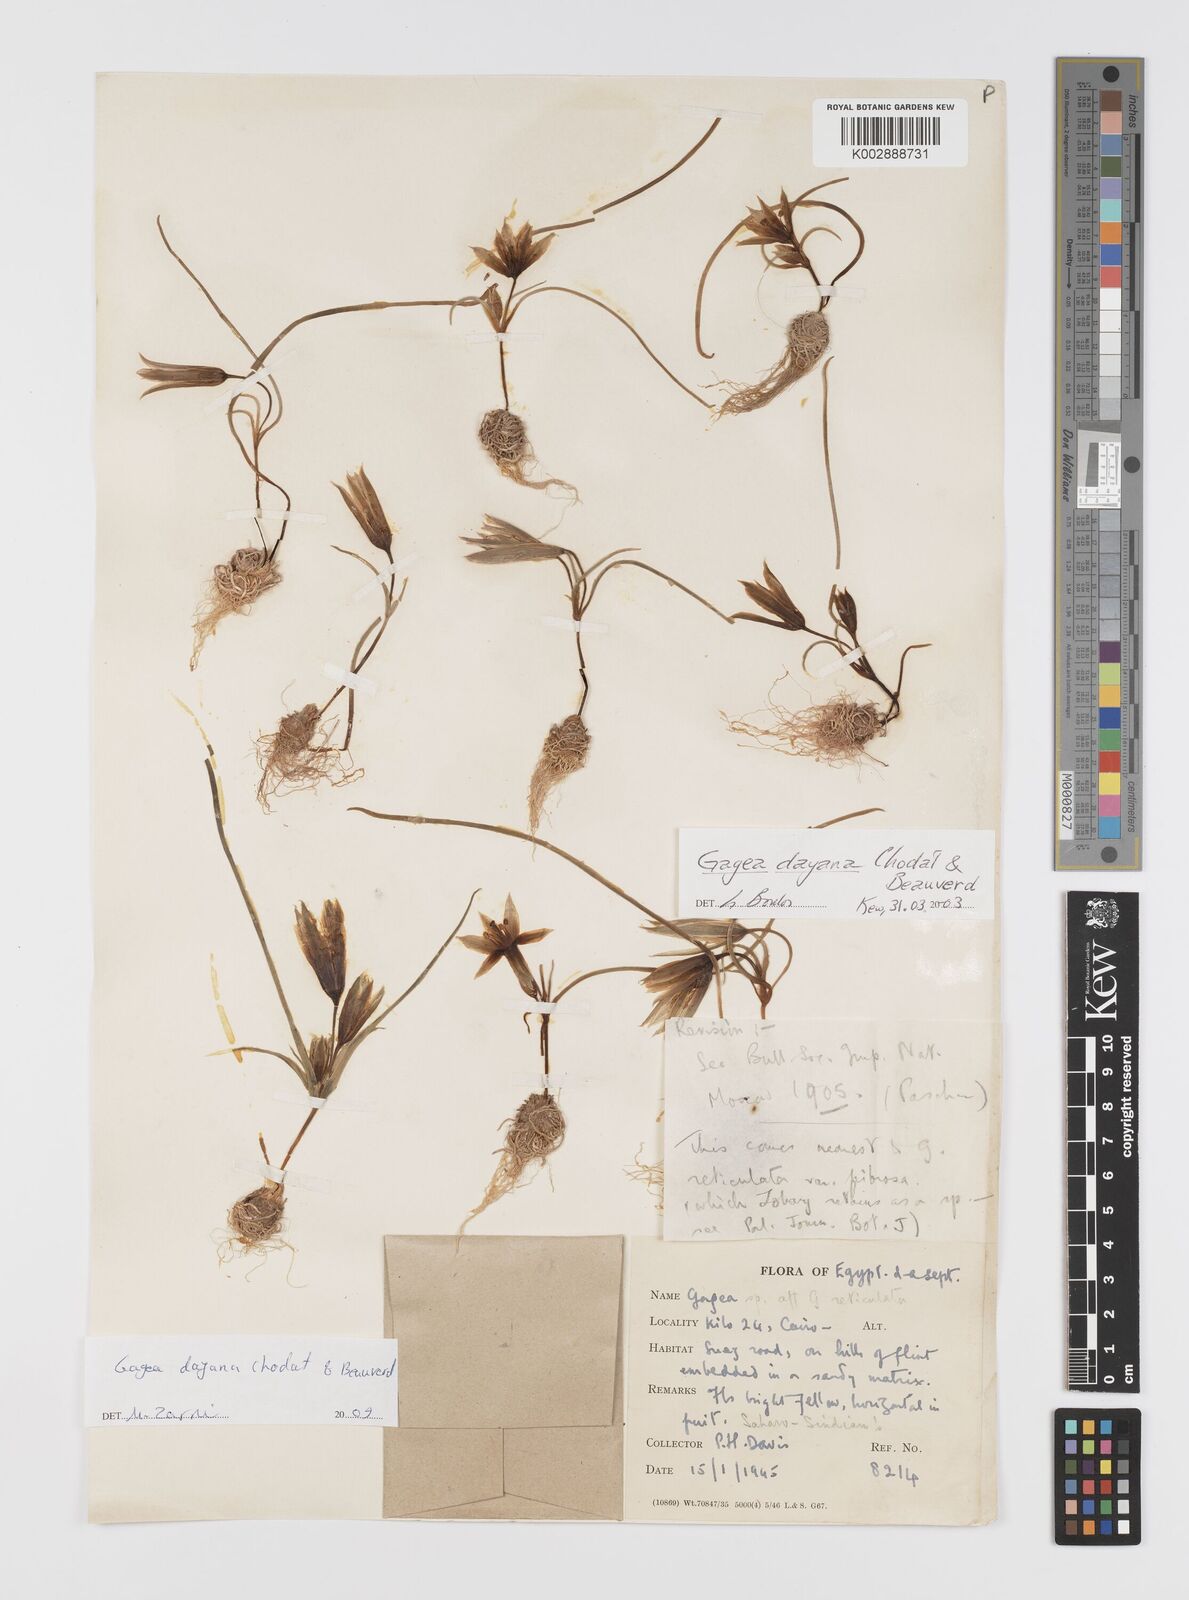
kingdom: Plantae
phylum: Tracheophyta
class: Liliopsida
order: Liliales
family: Liliaceae
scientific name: Liliaceae
